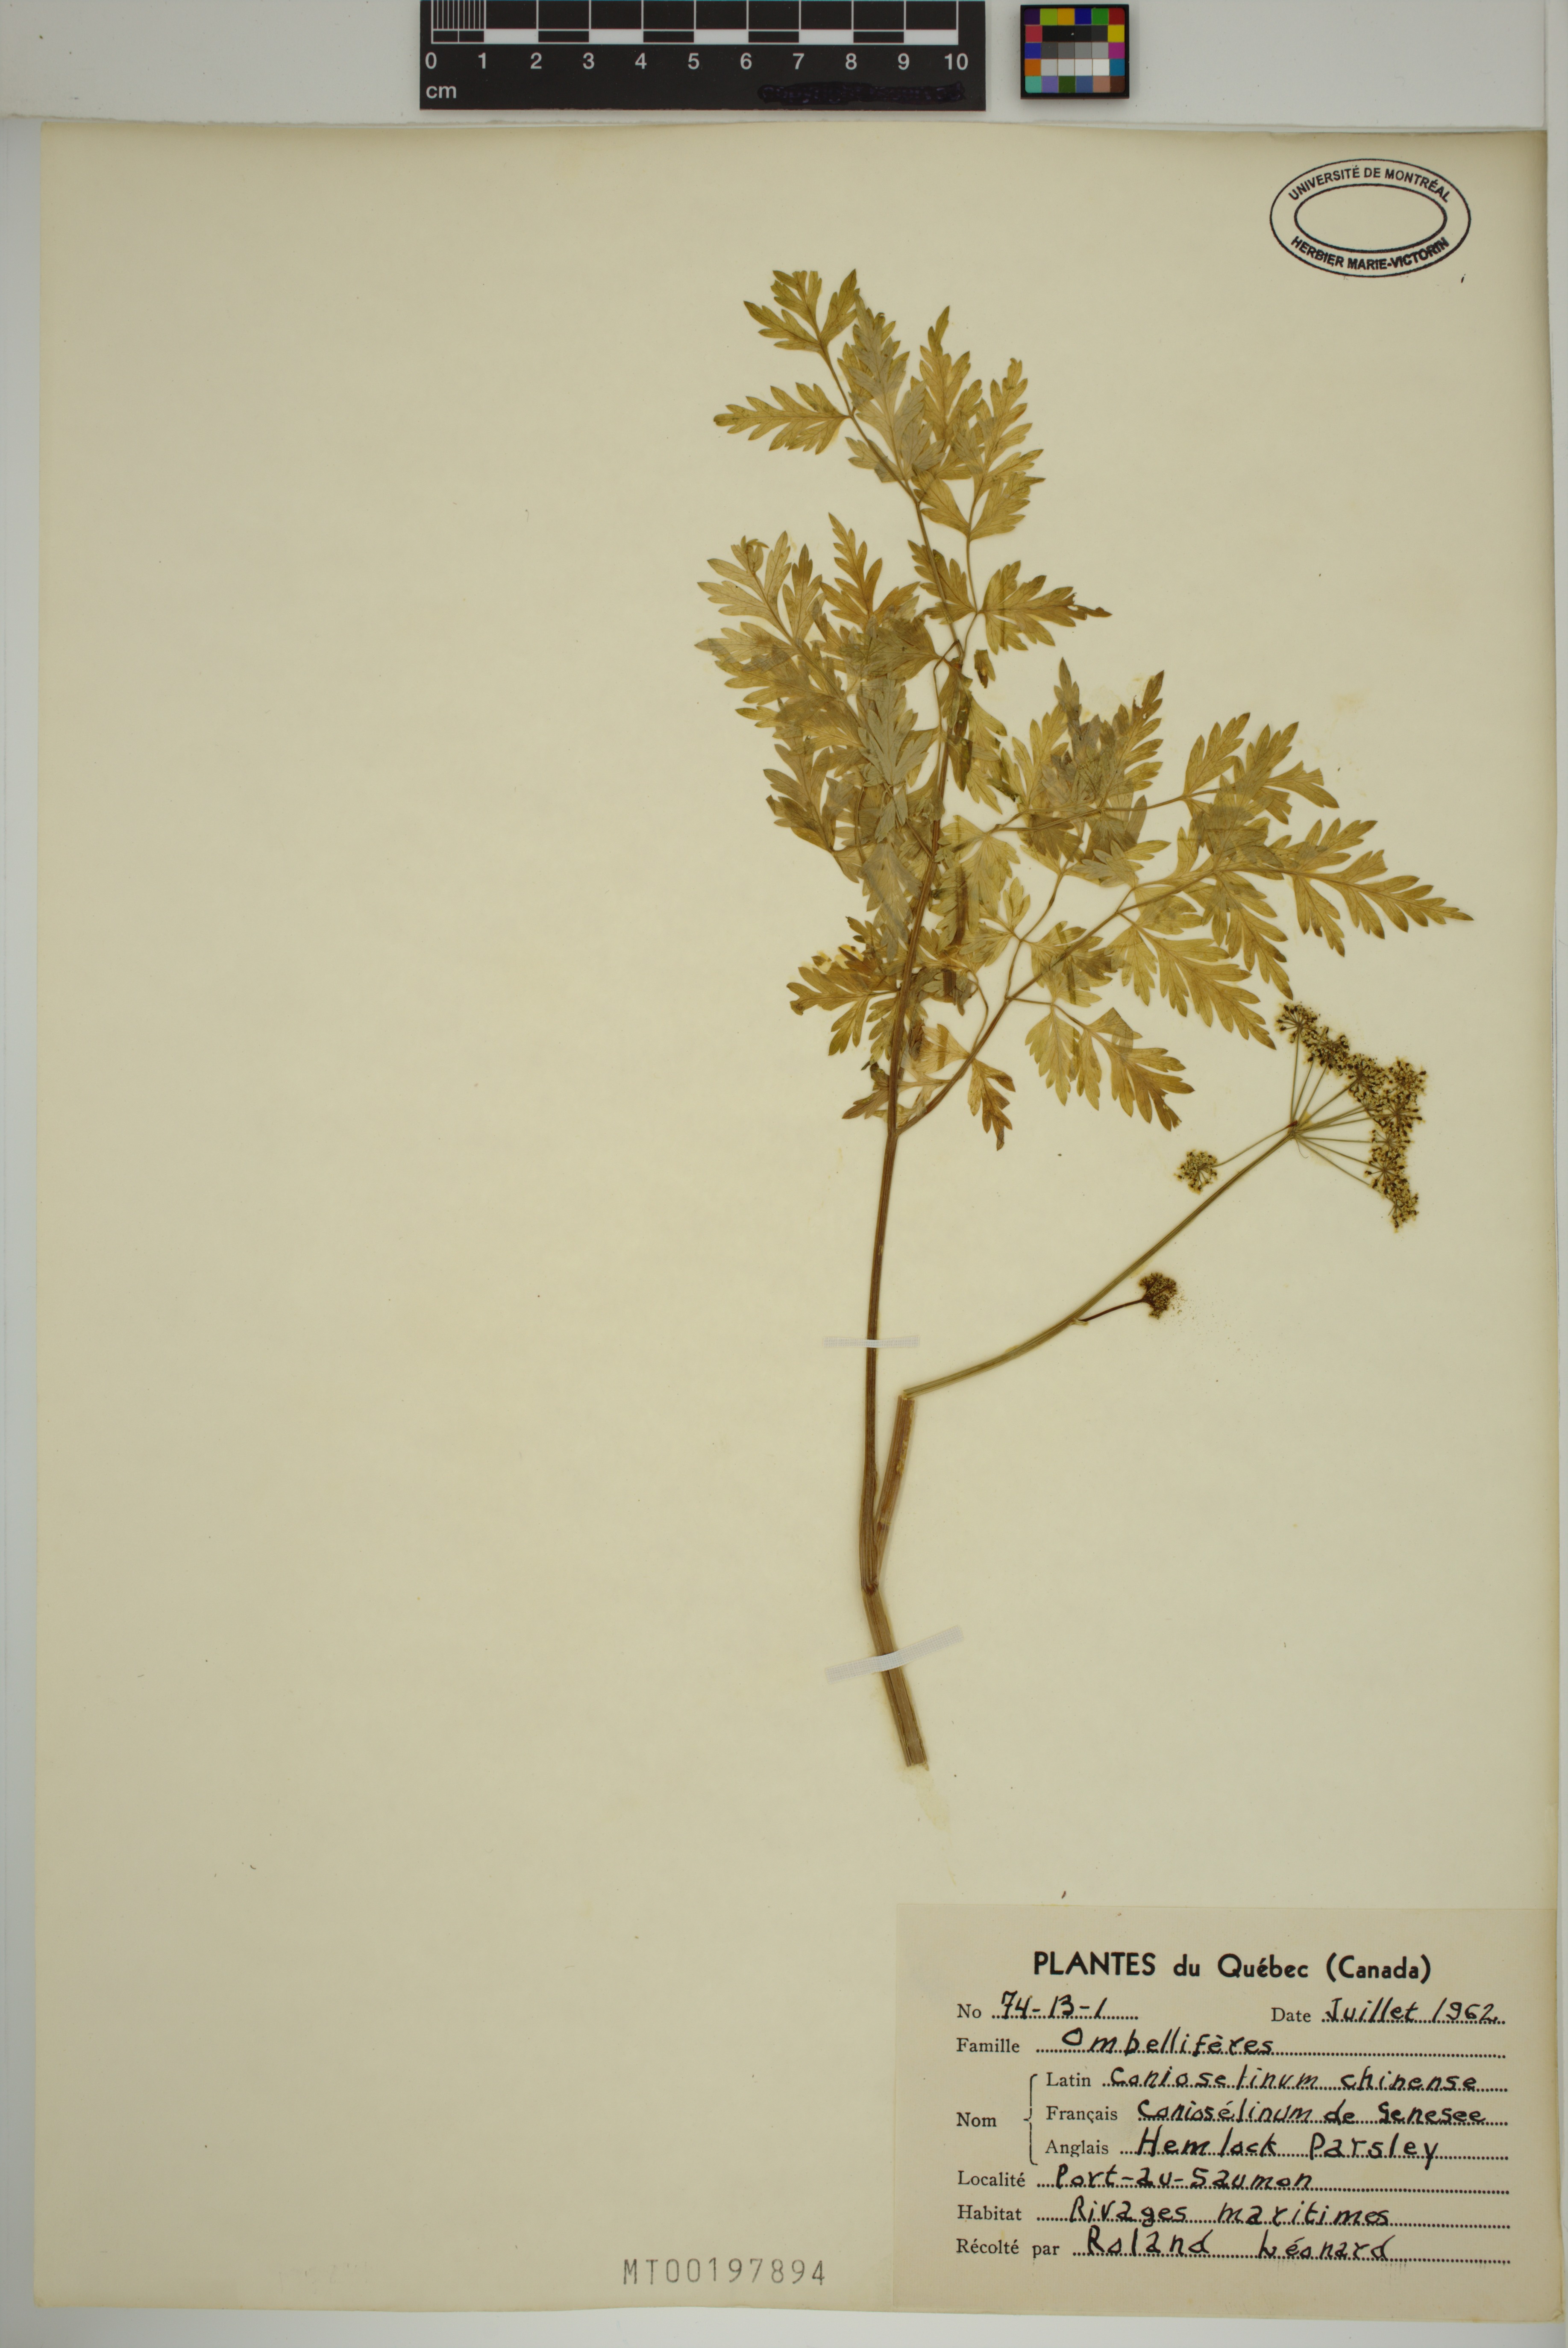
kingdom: Plantae
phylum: Tracheophyta
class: Magnoliopsida
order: Apiales
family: Apiaceae
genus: Kreidion
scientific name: Kreidion chinensis
